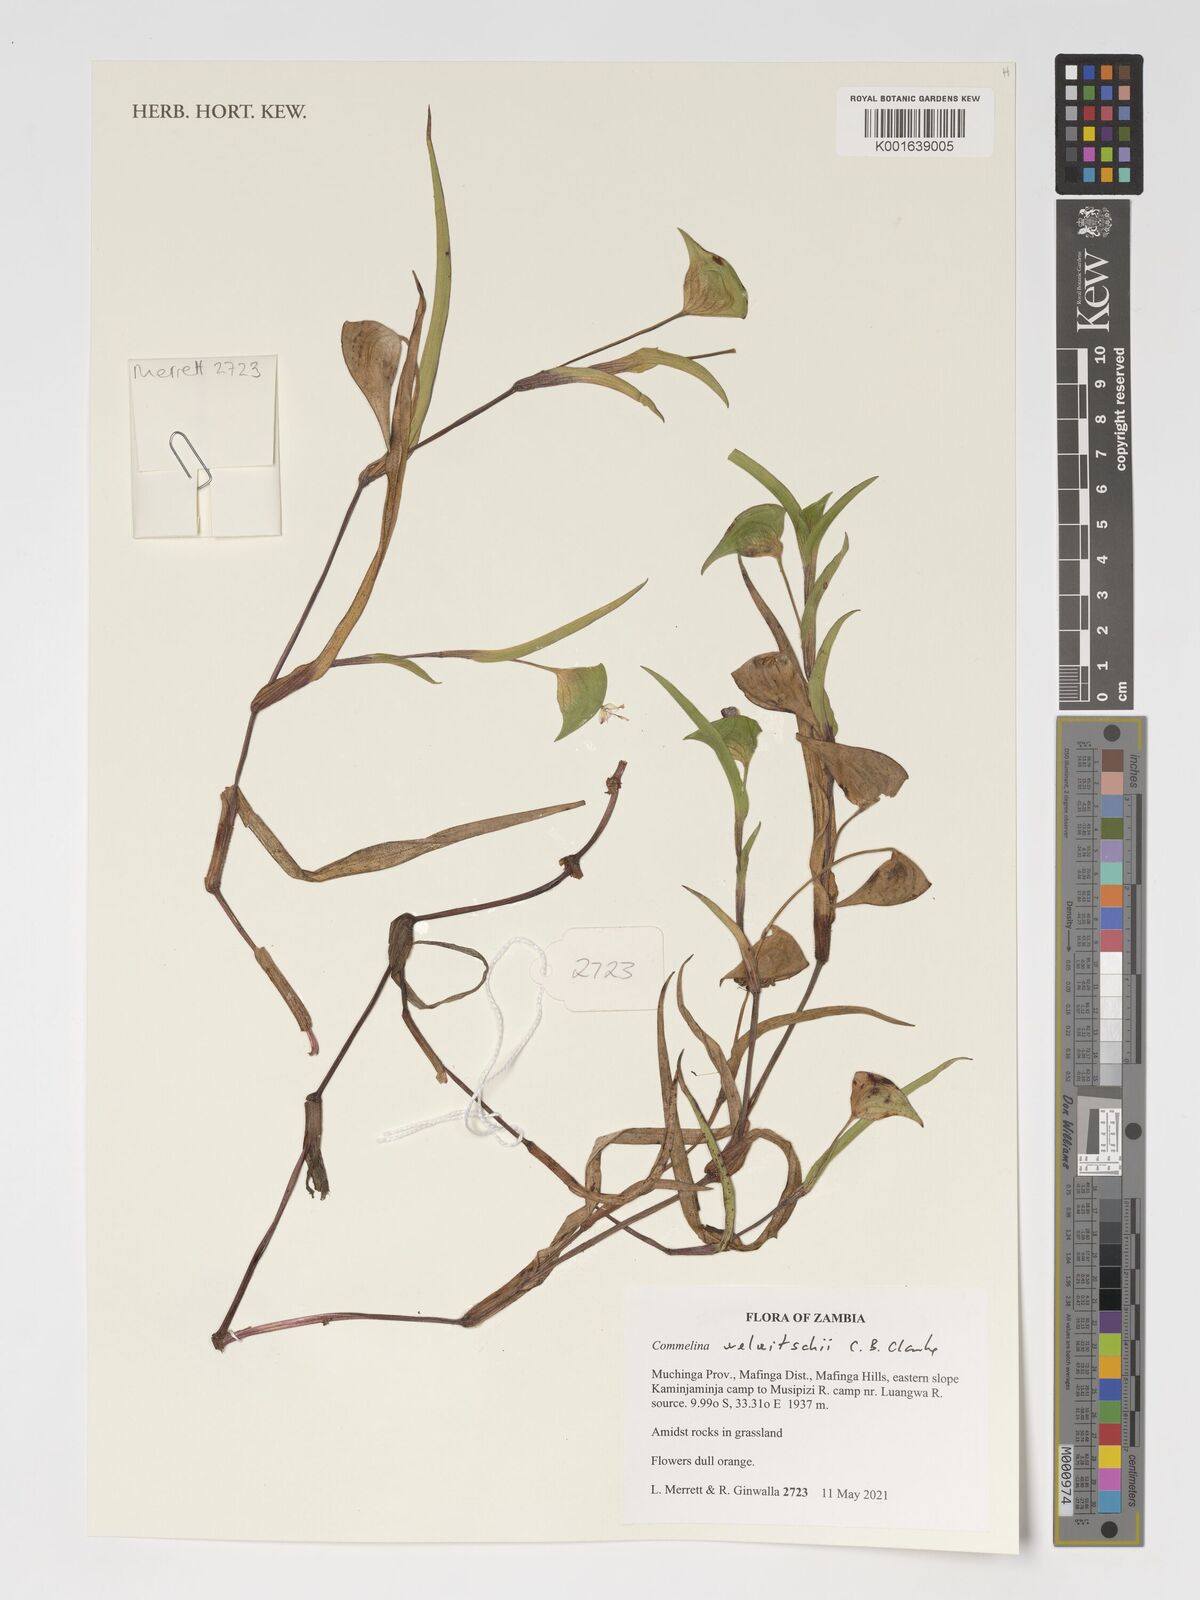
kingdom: Plantae
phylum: Tracheophyta
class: Liliopsida
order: Commelinales
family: Commelinaceae
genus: Commelina
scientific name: Commelina welwitschii
